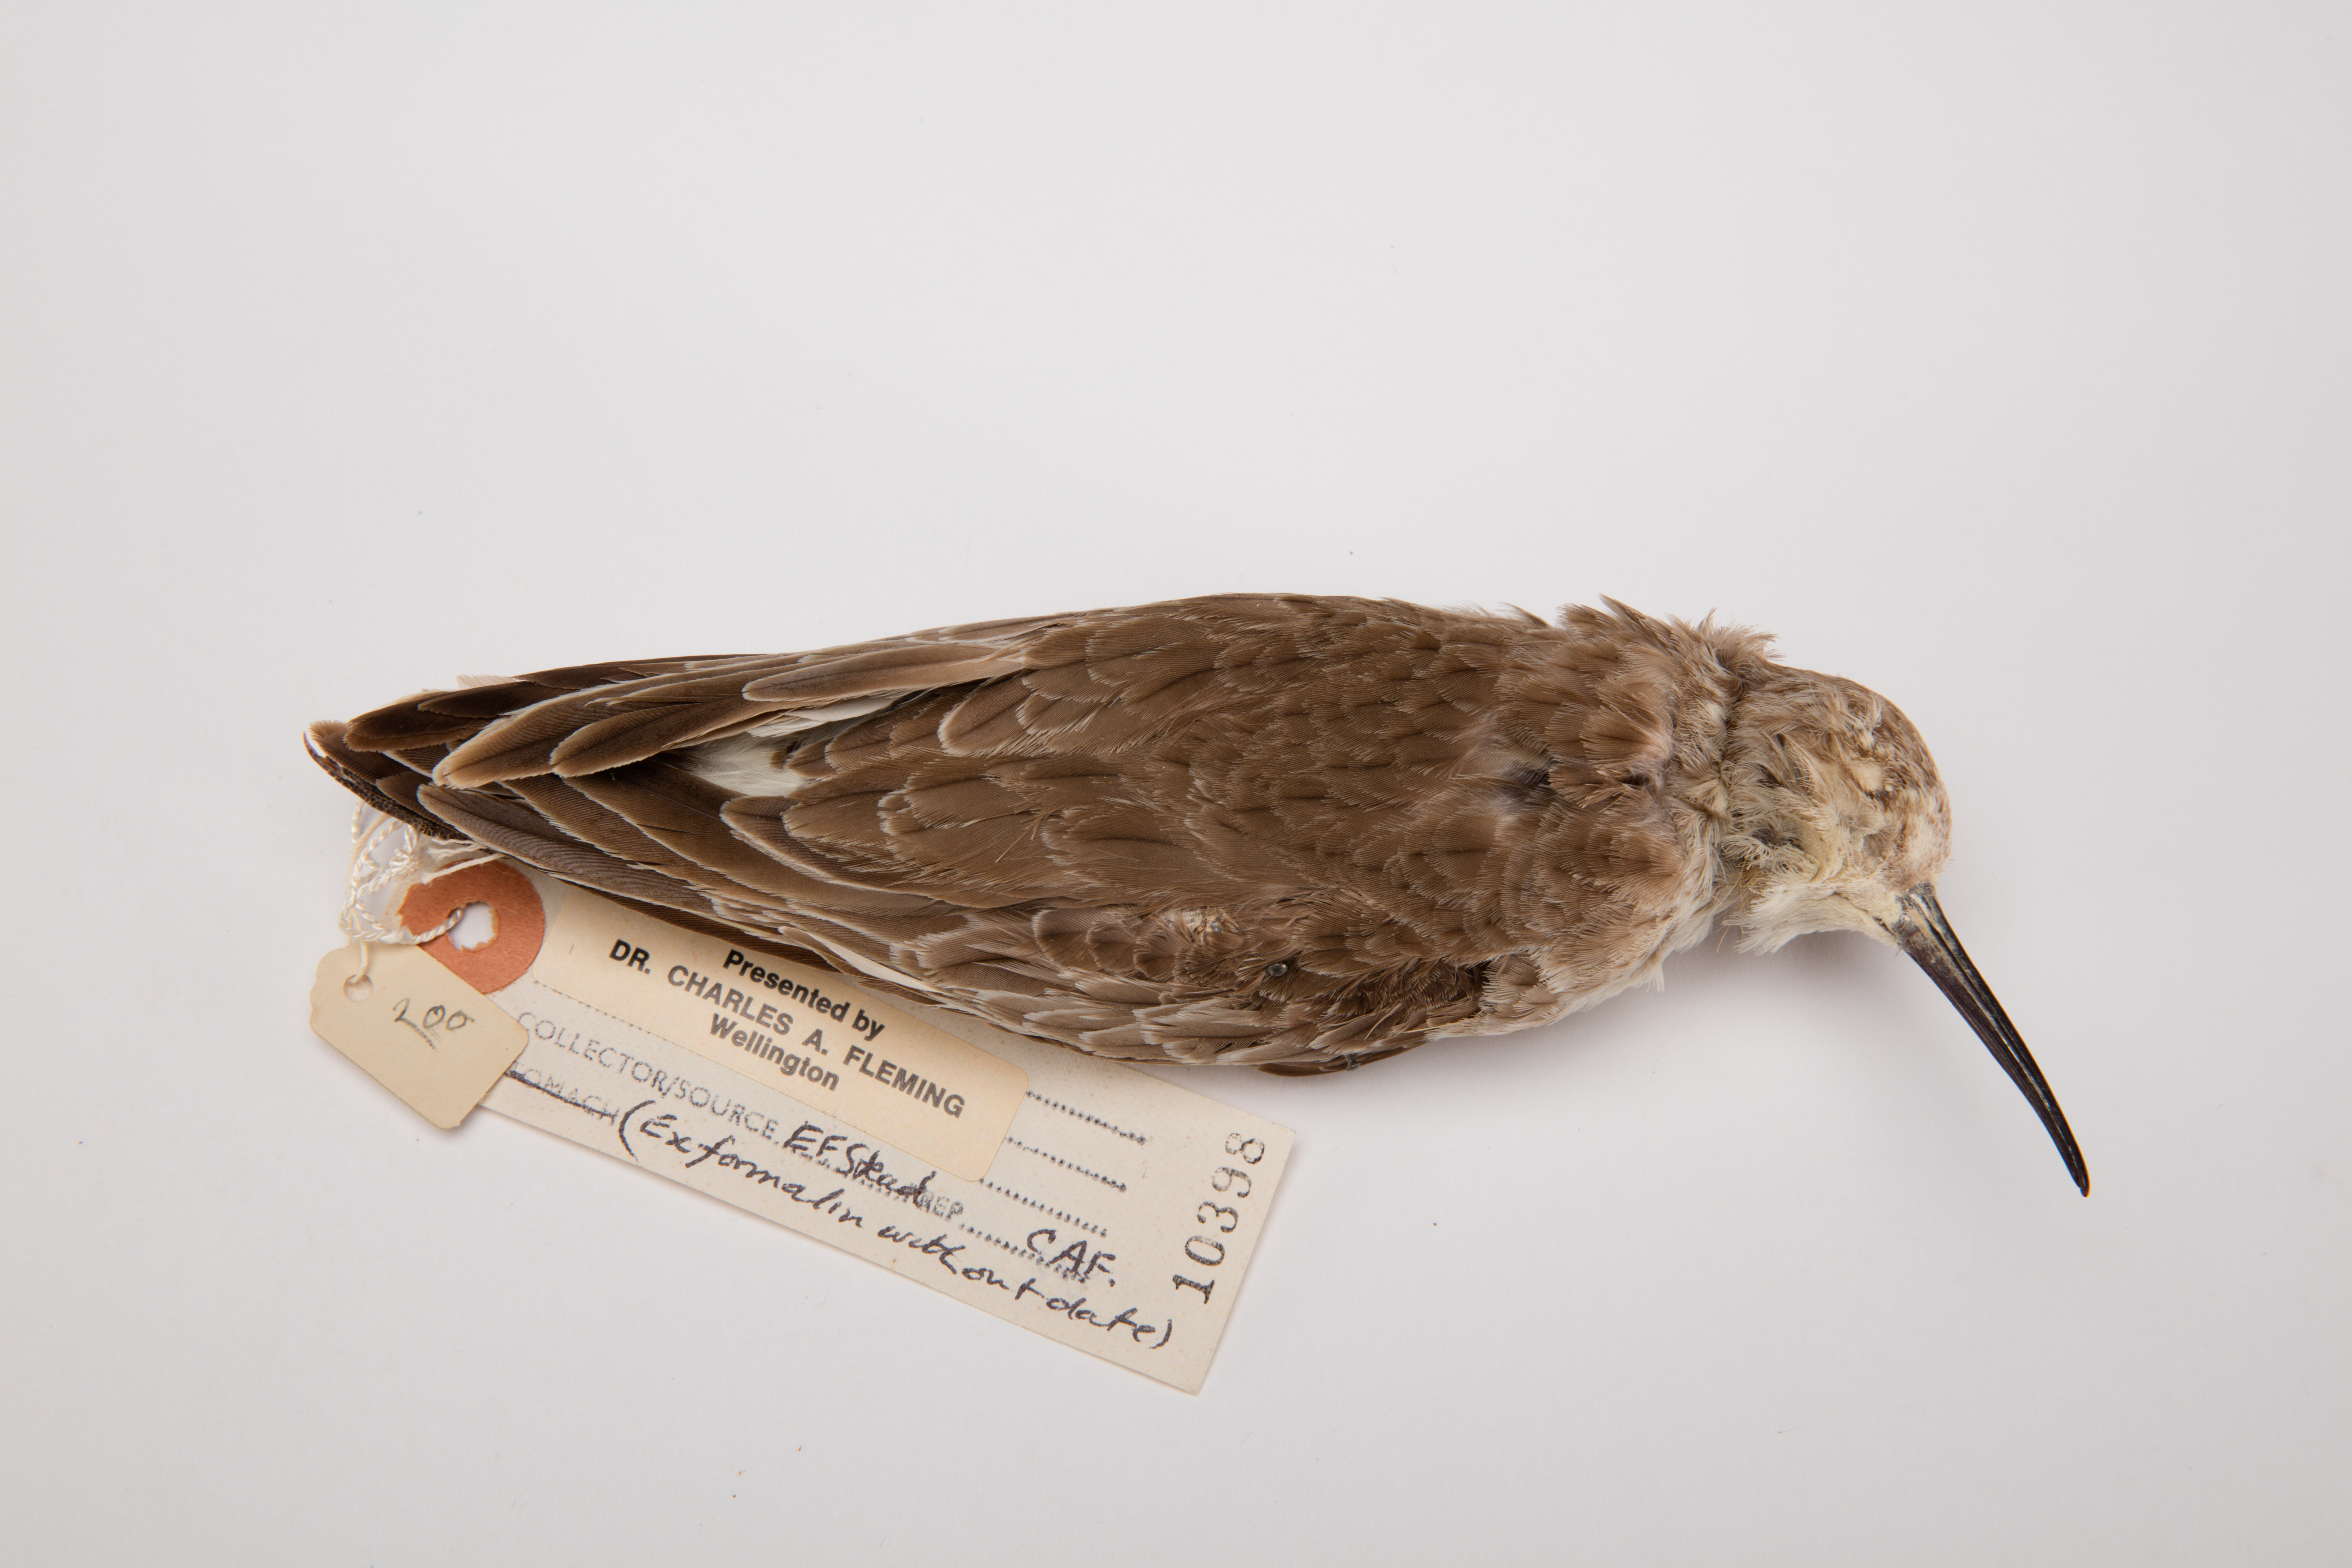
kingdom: Animalia
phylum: Chordata
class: Aves
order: Charadriiformes
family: Scolopacidae
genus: Calidris
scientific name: Calidris ferruginea
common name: Curlew sandpiper
